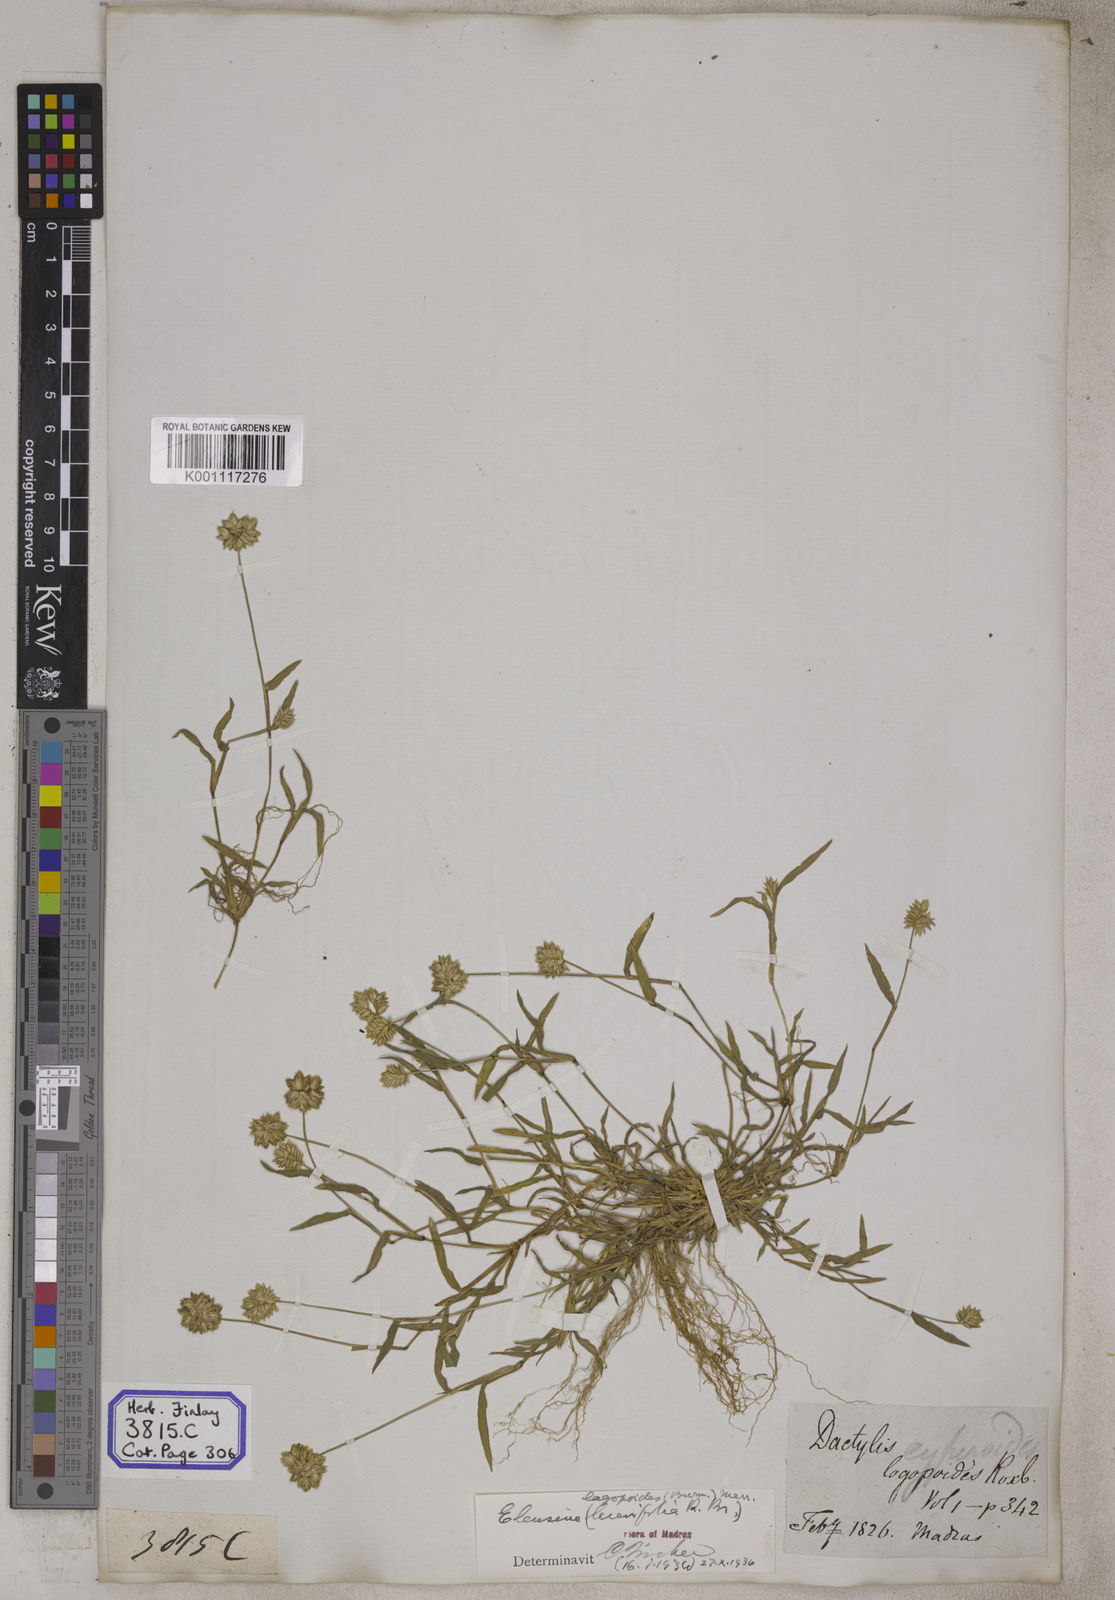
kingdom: Plantae
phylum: Tracheophyta
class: Liliopsida
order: Poales
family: Poaceae
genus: Eleusine
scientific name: Eleusine
